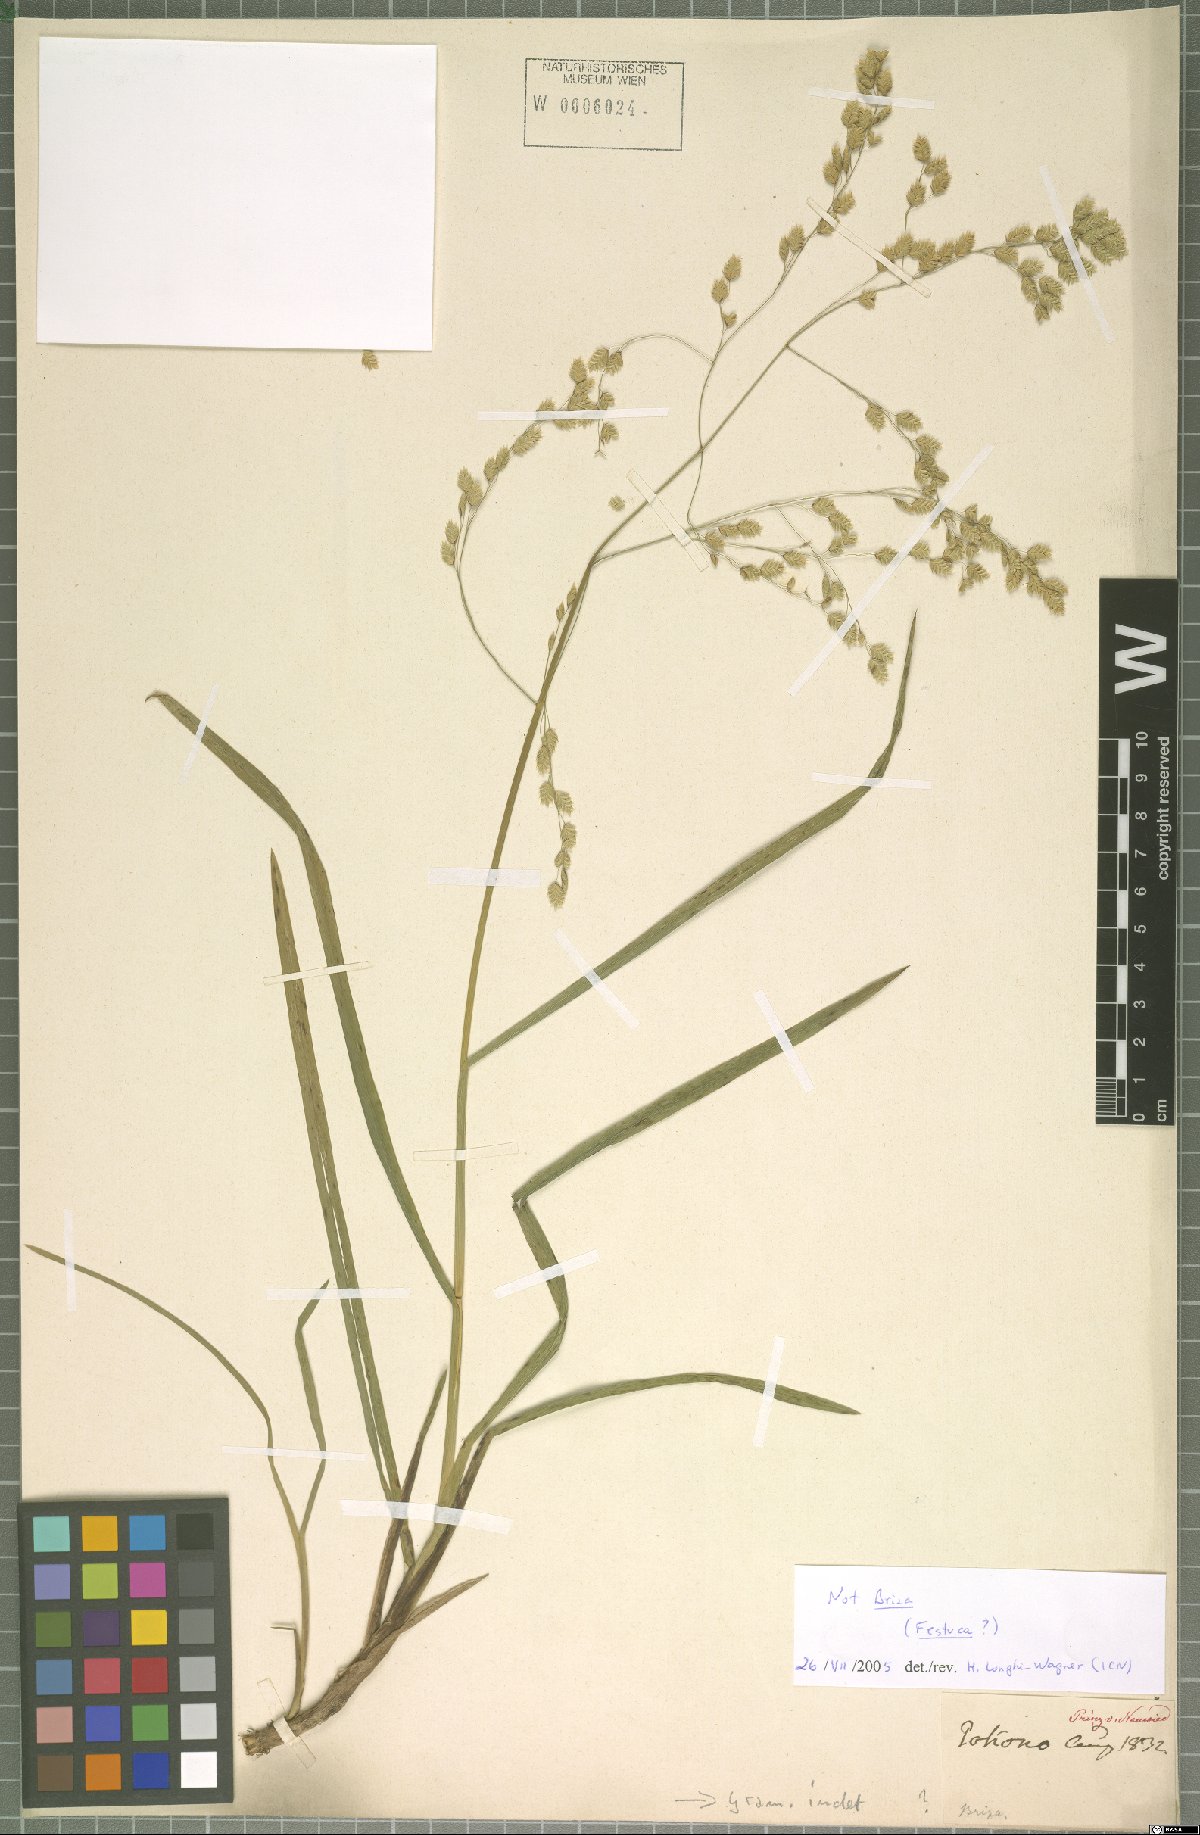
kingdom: Plantae
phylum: Tracheophyta
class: Liliopsida
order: Poales
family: Poaceae
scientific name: Poaceae
